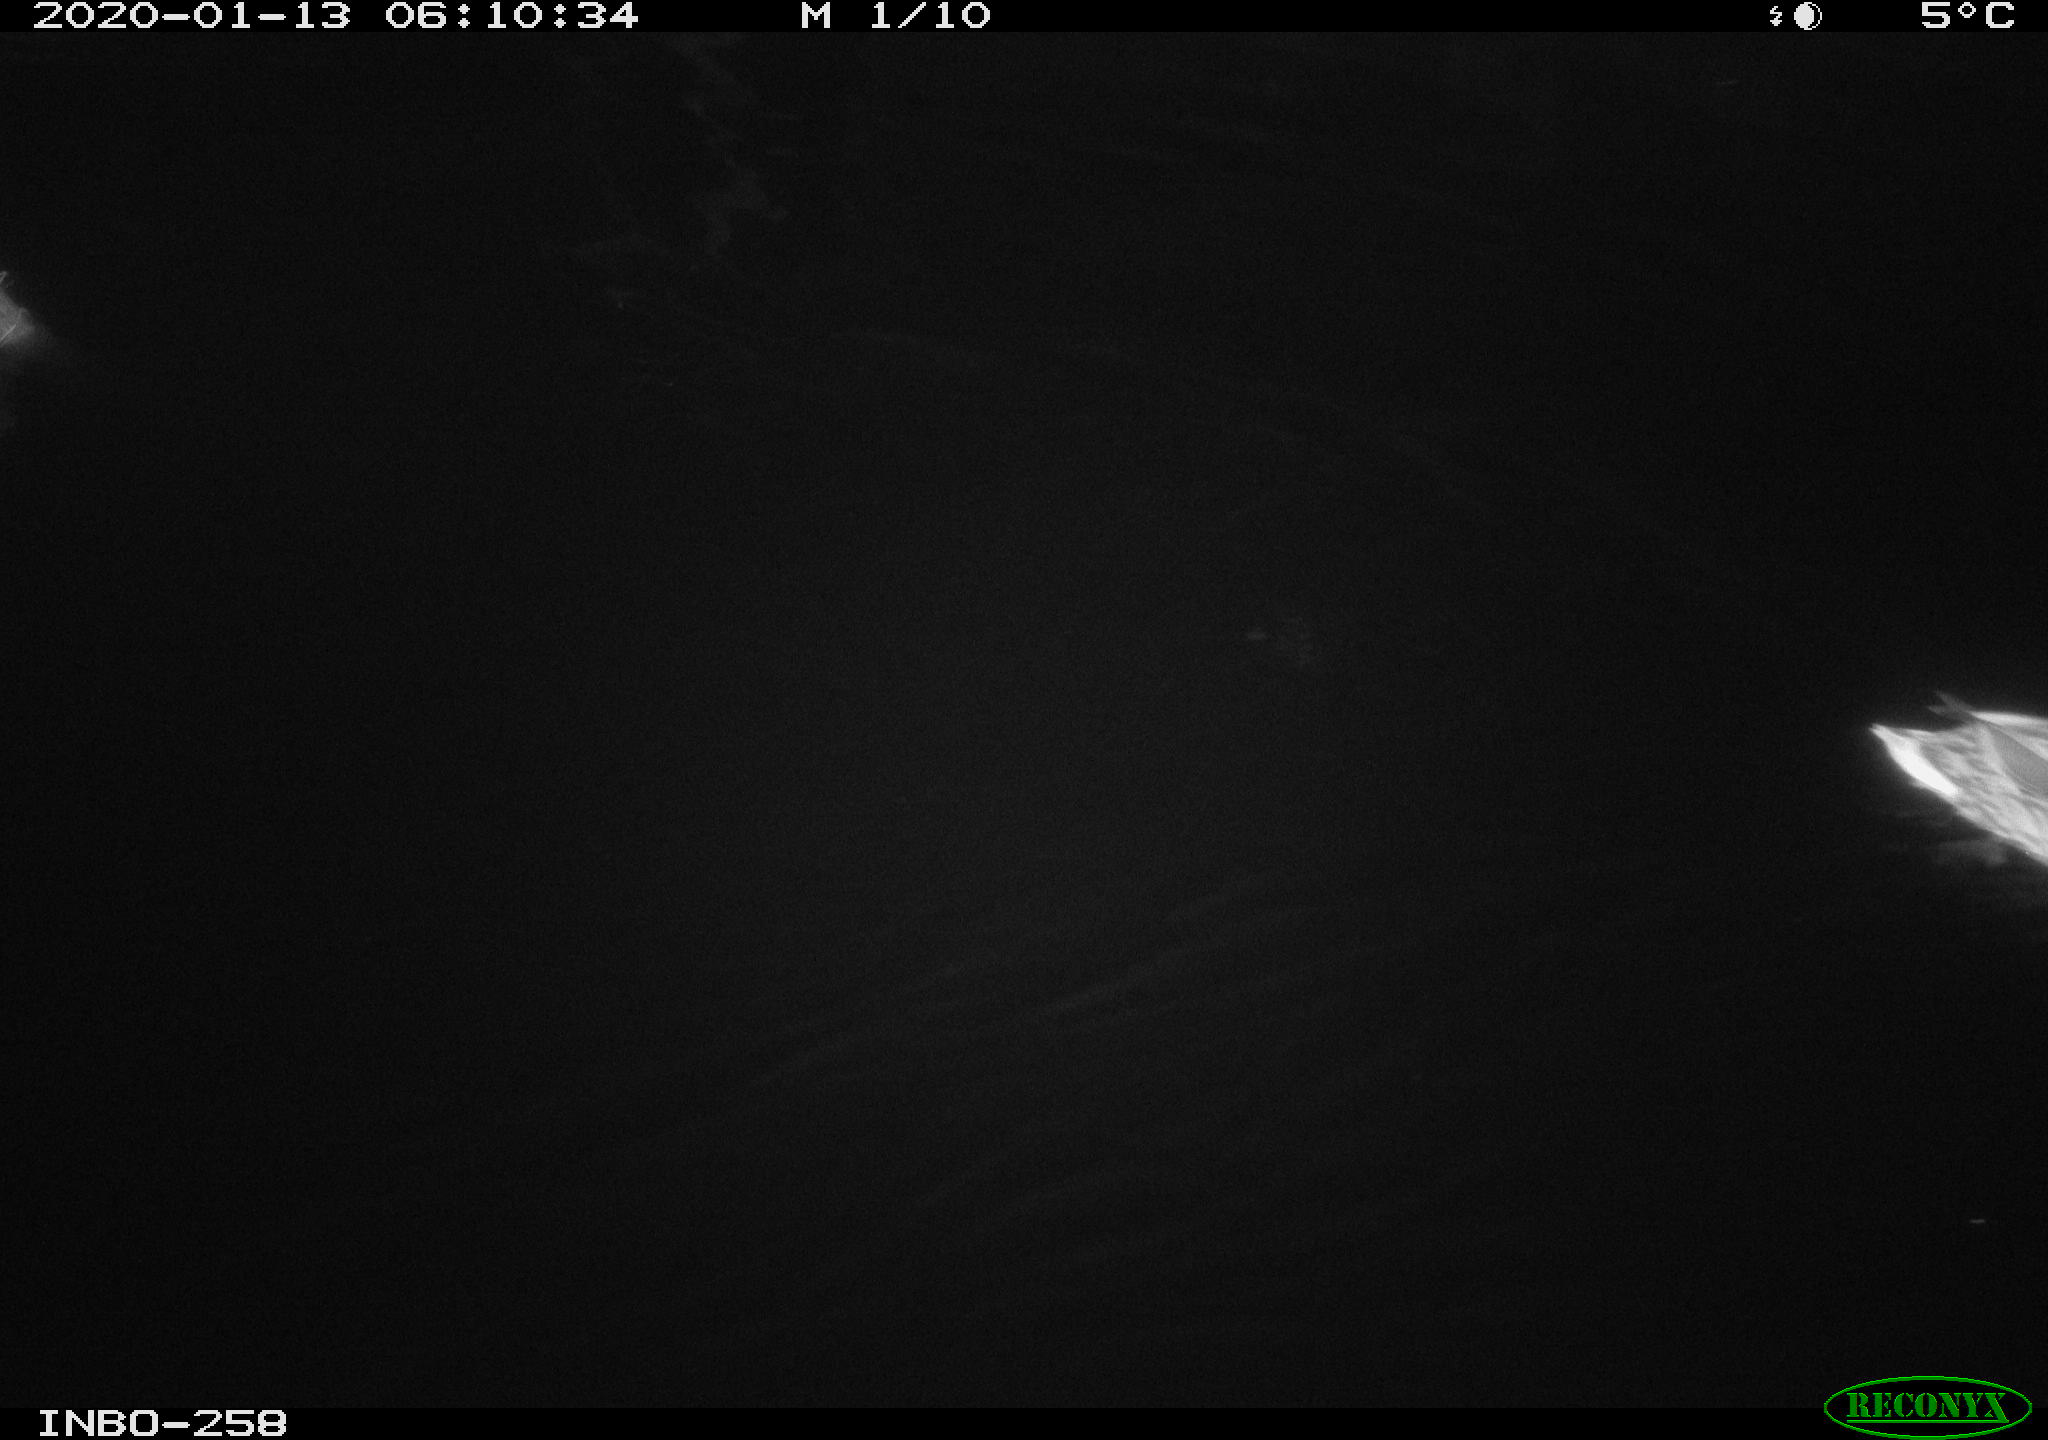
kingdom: Animalia
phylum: Chordata
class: Aves
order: Anseriformes
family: Anatidae
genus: Anas
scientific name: Anas platyrhynchos
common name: Mallard
